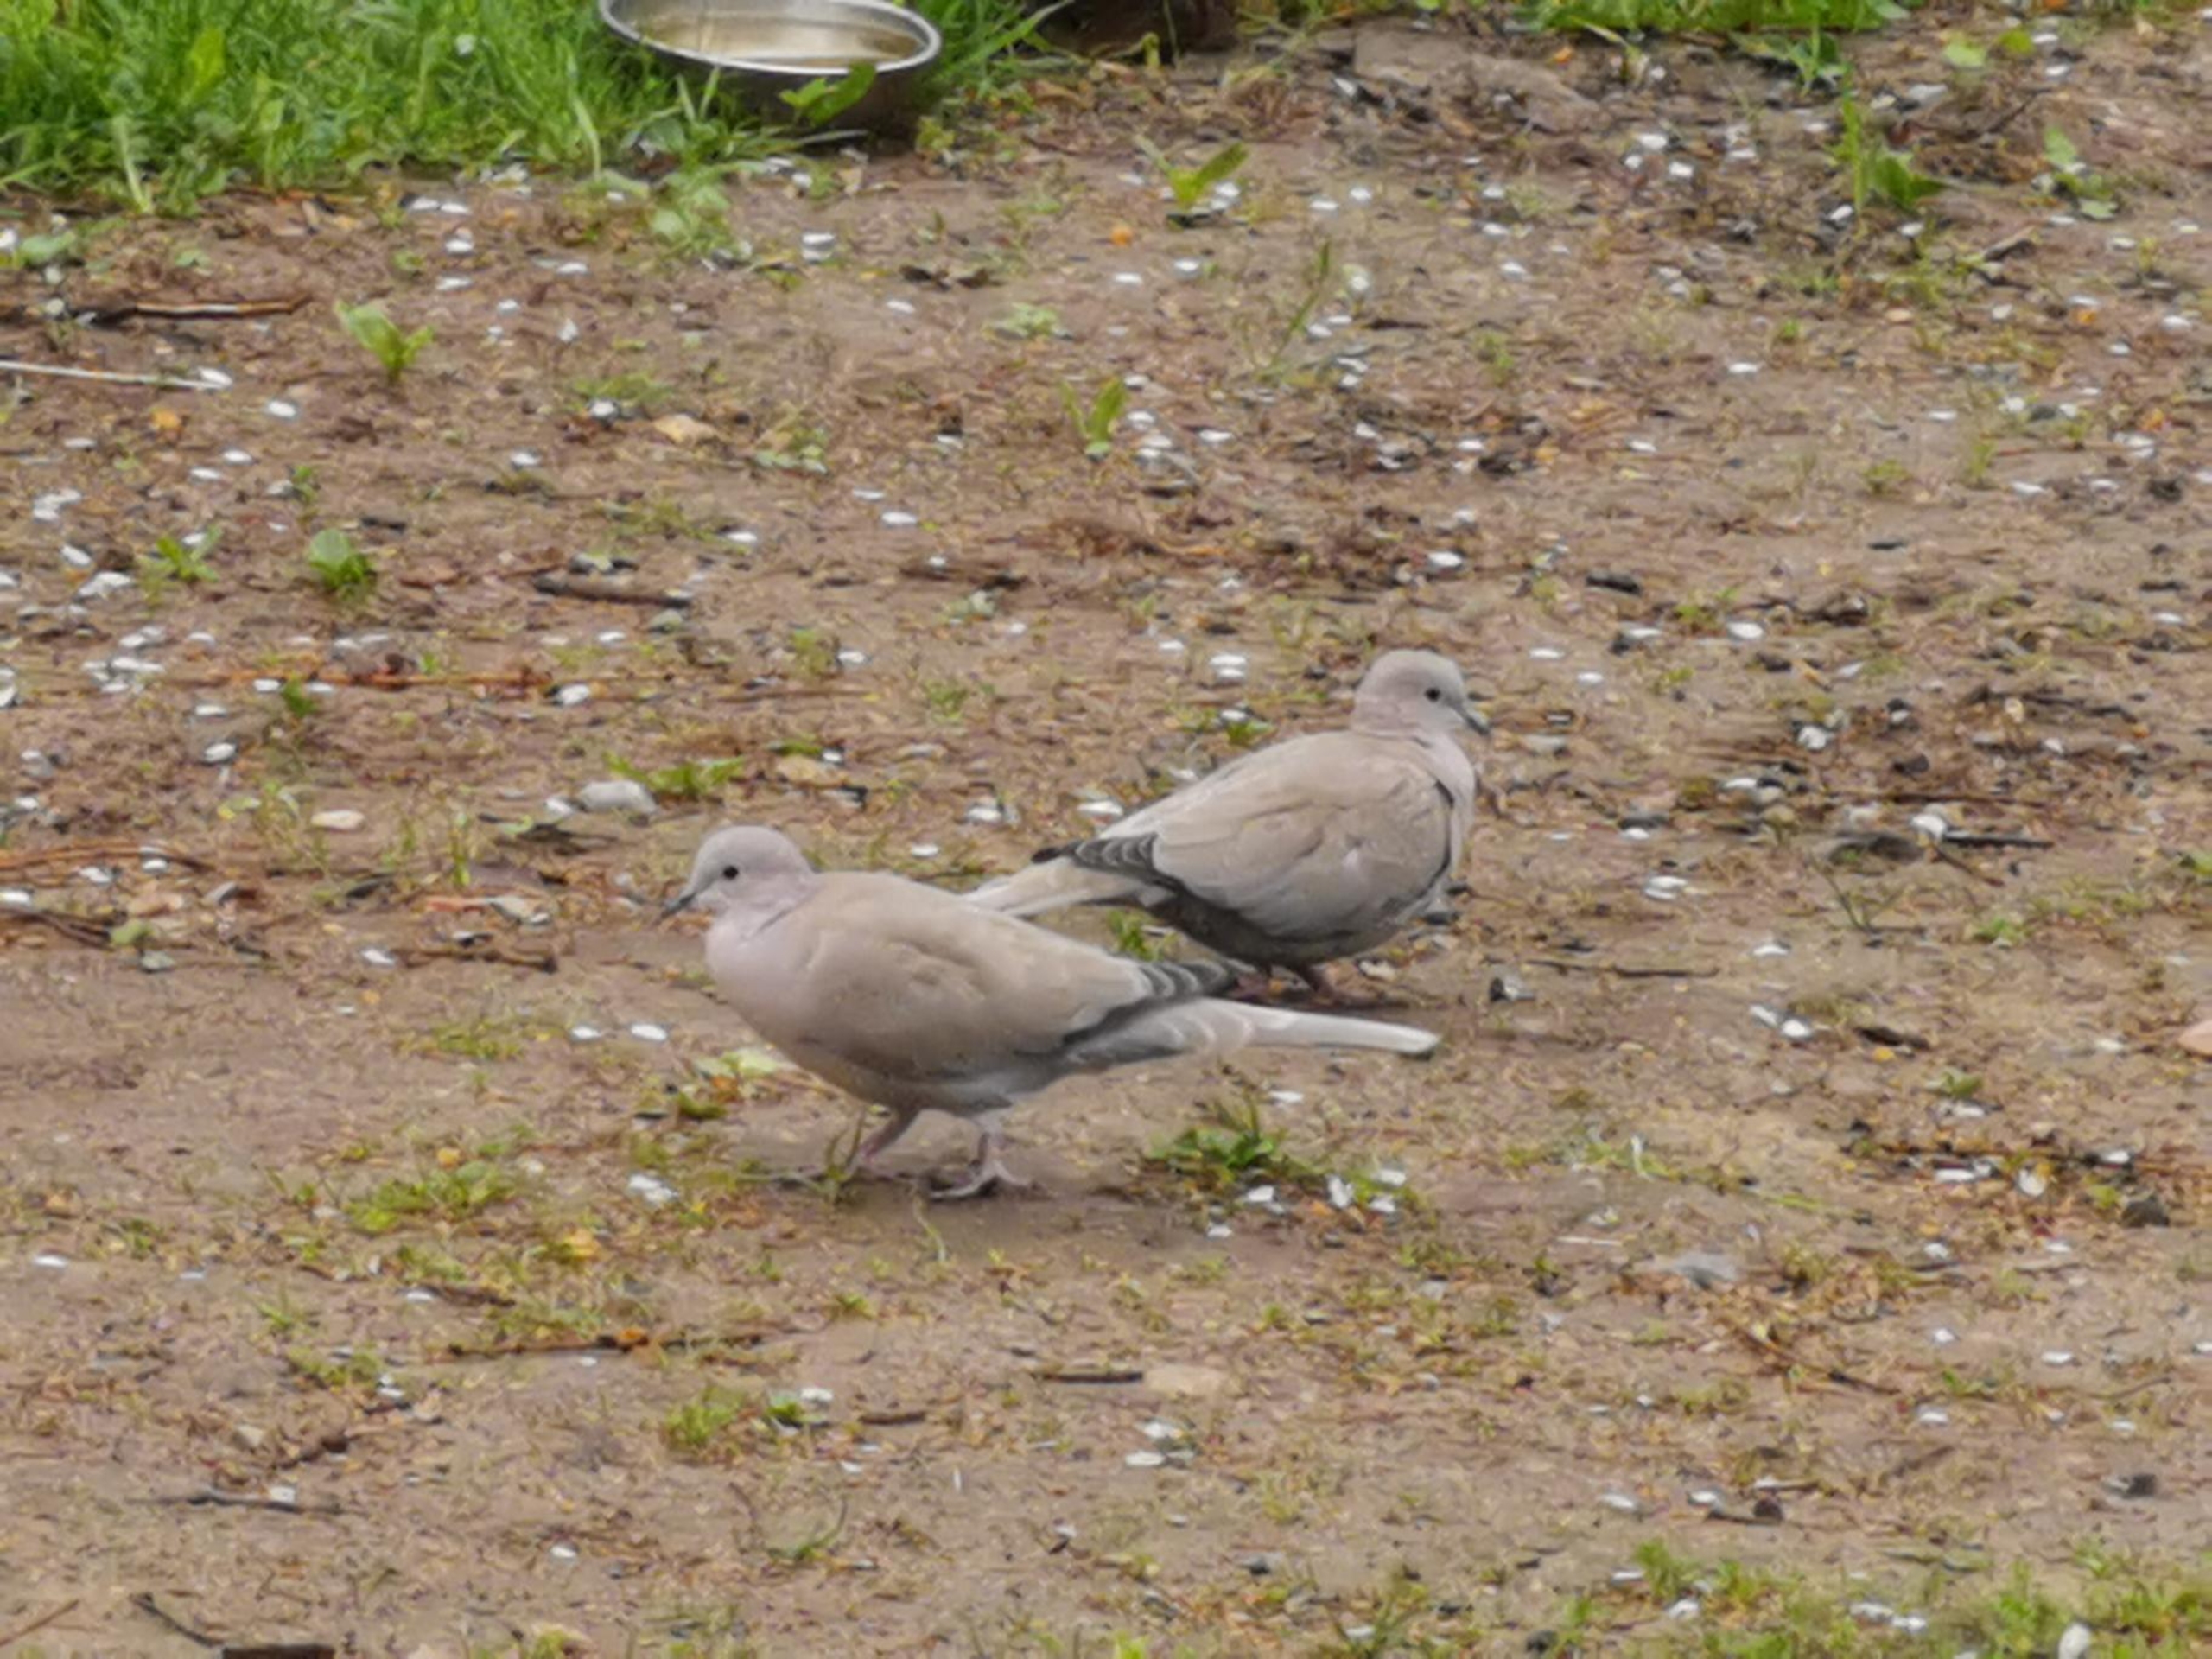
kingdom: Animalia
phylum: Chordata
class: Aves
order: Columbiformes
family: Columbidae
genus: Streptopelia
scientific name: Streptopelia decaocto
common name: Tyrkerdue
